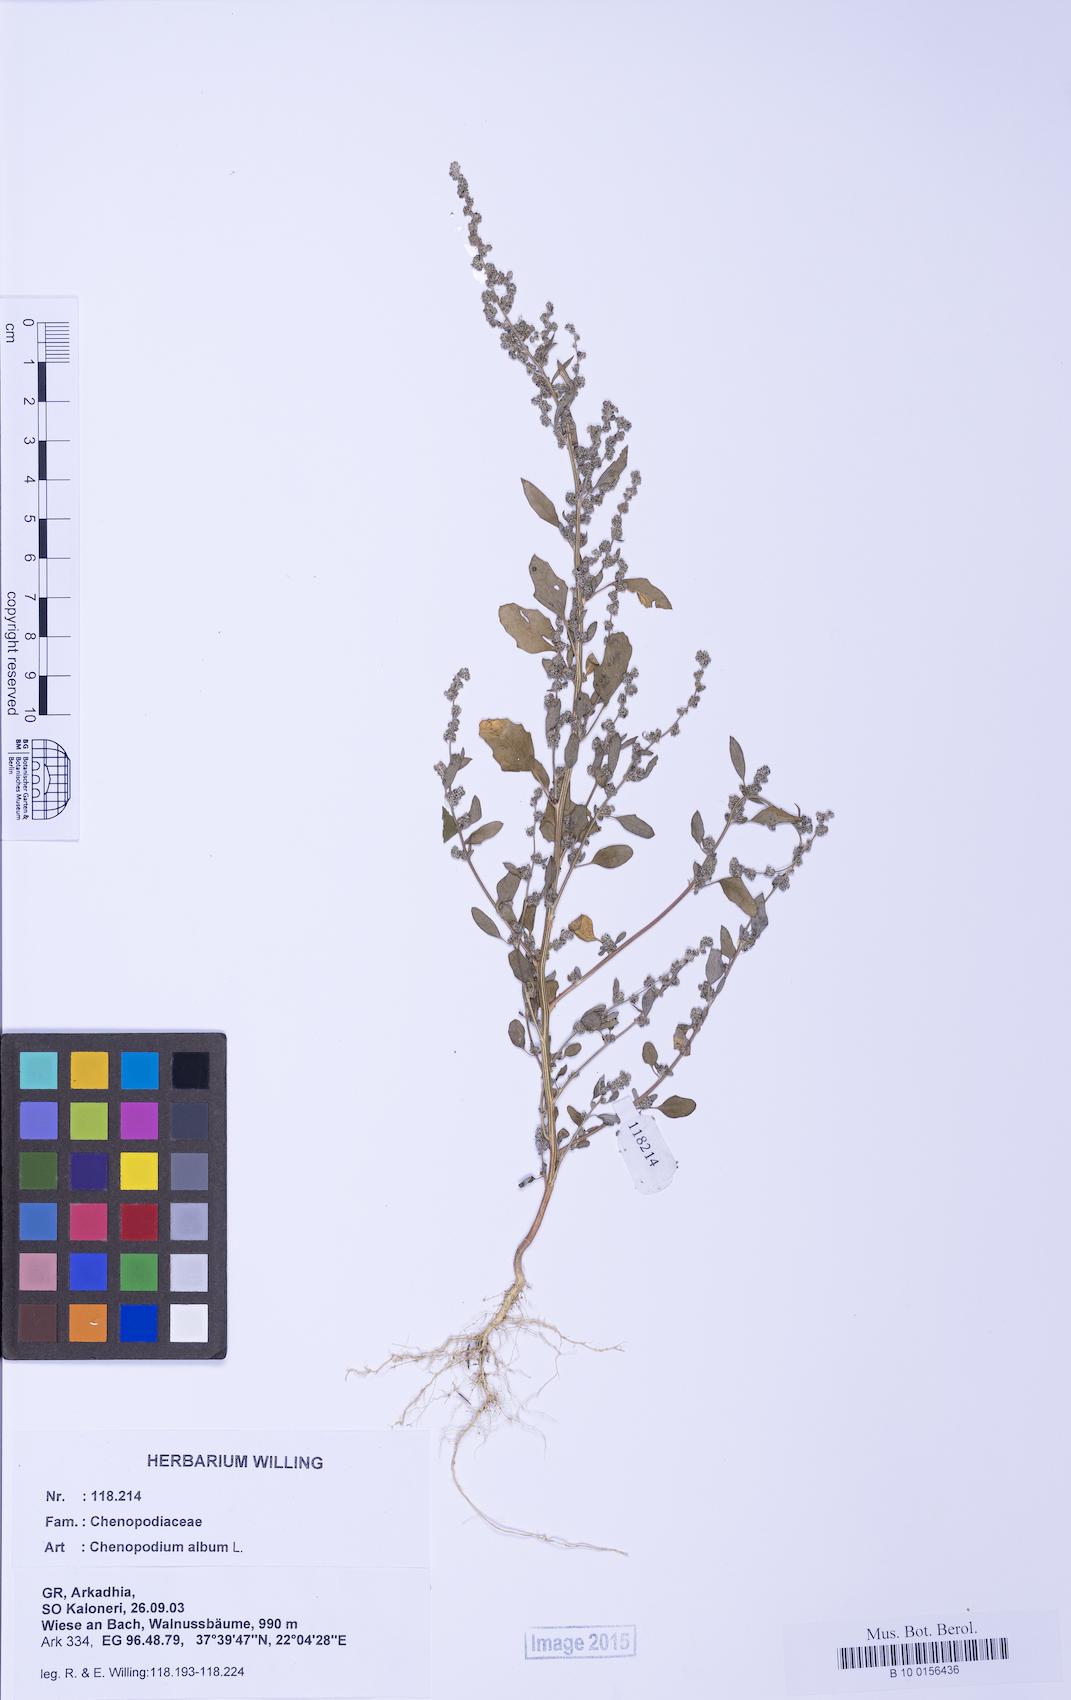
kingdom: Plantae
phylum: Tracheophyta
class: Magnoliopsida
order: Caryophyllales
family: Amaranthaceae
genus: Chenopodium
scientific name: Chenopodium striatiforme
